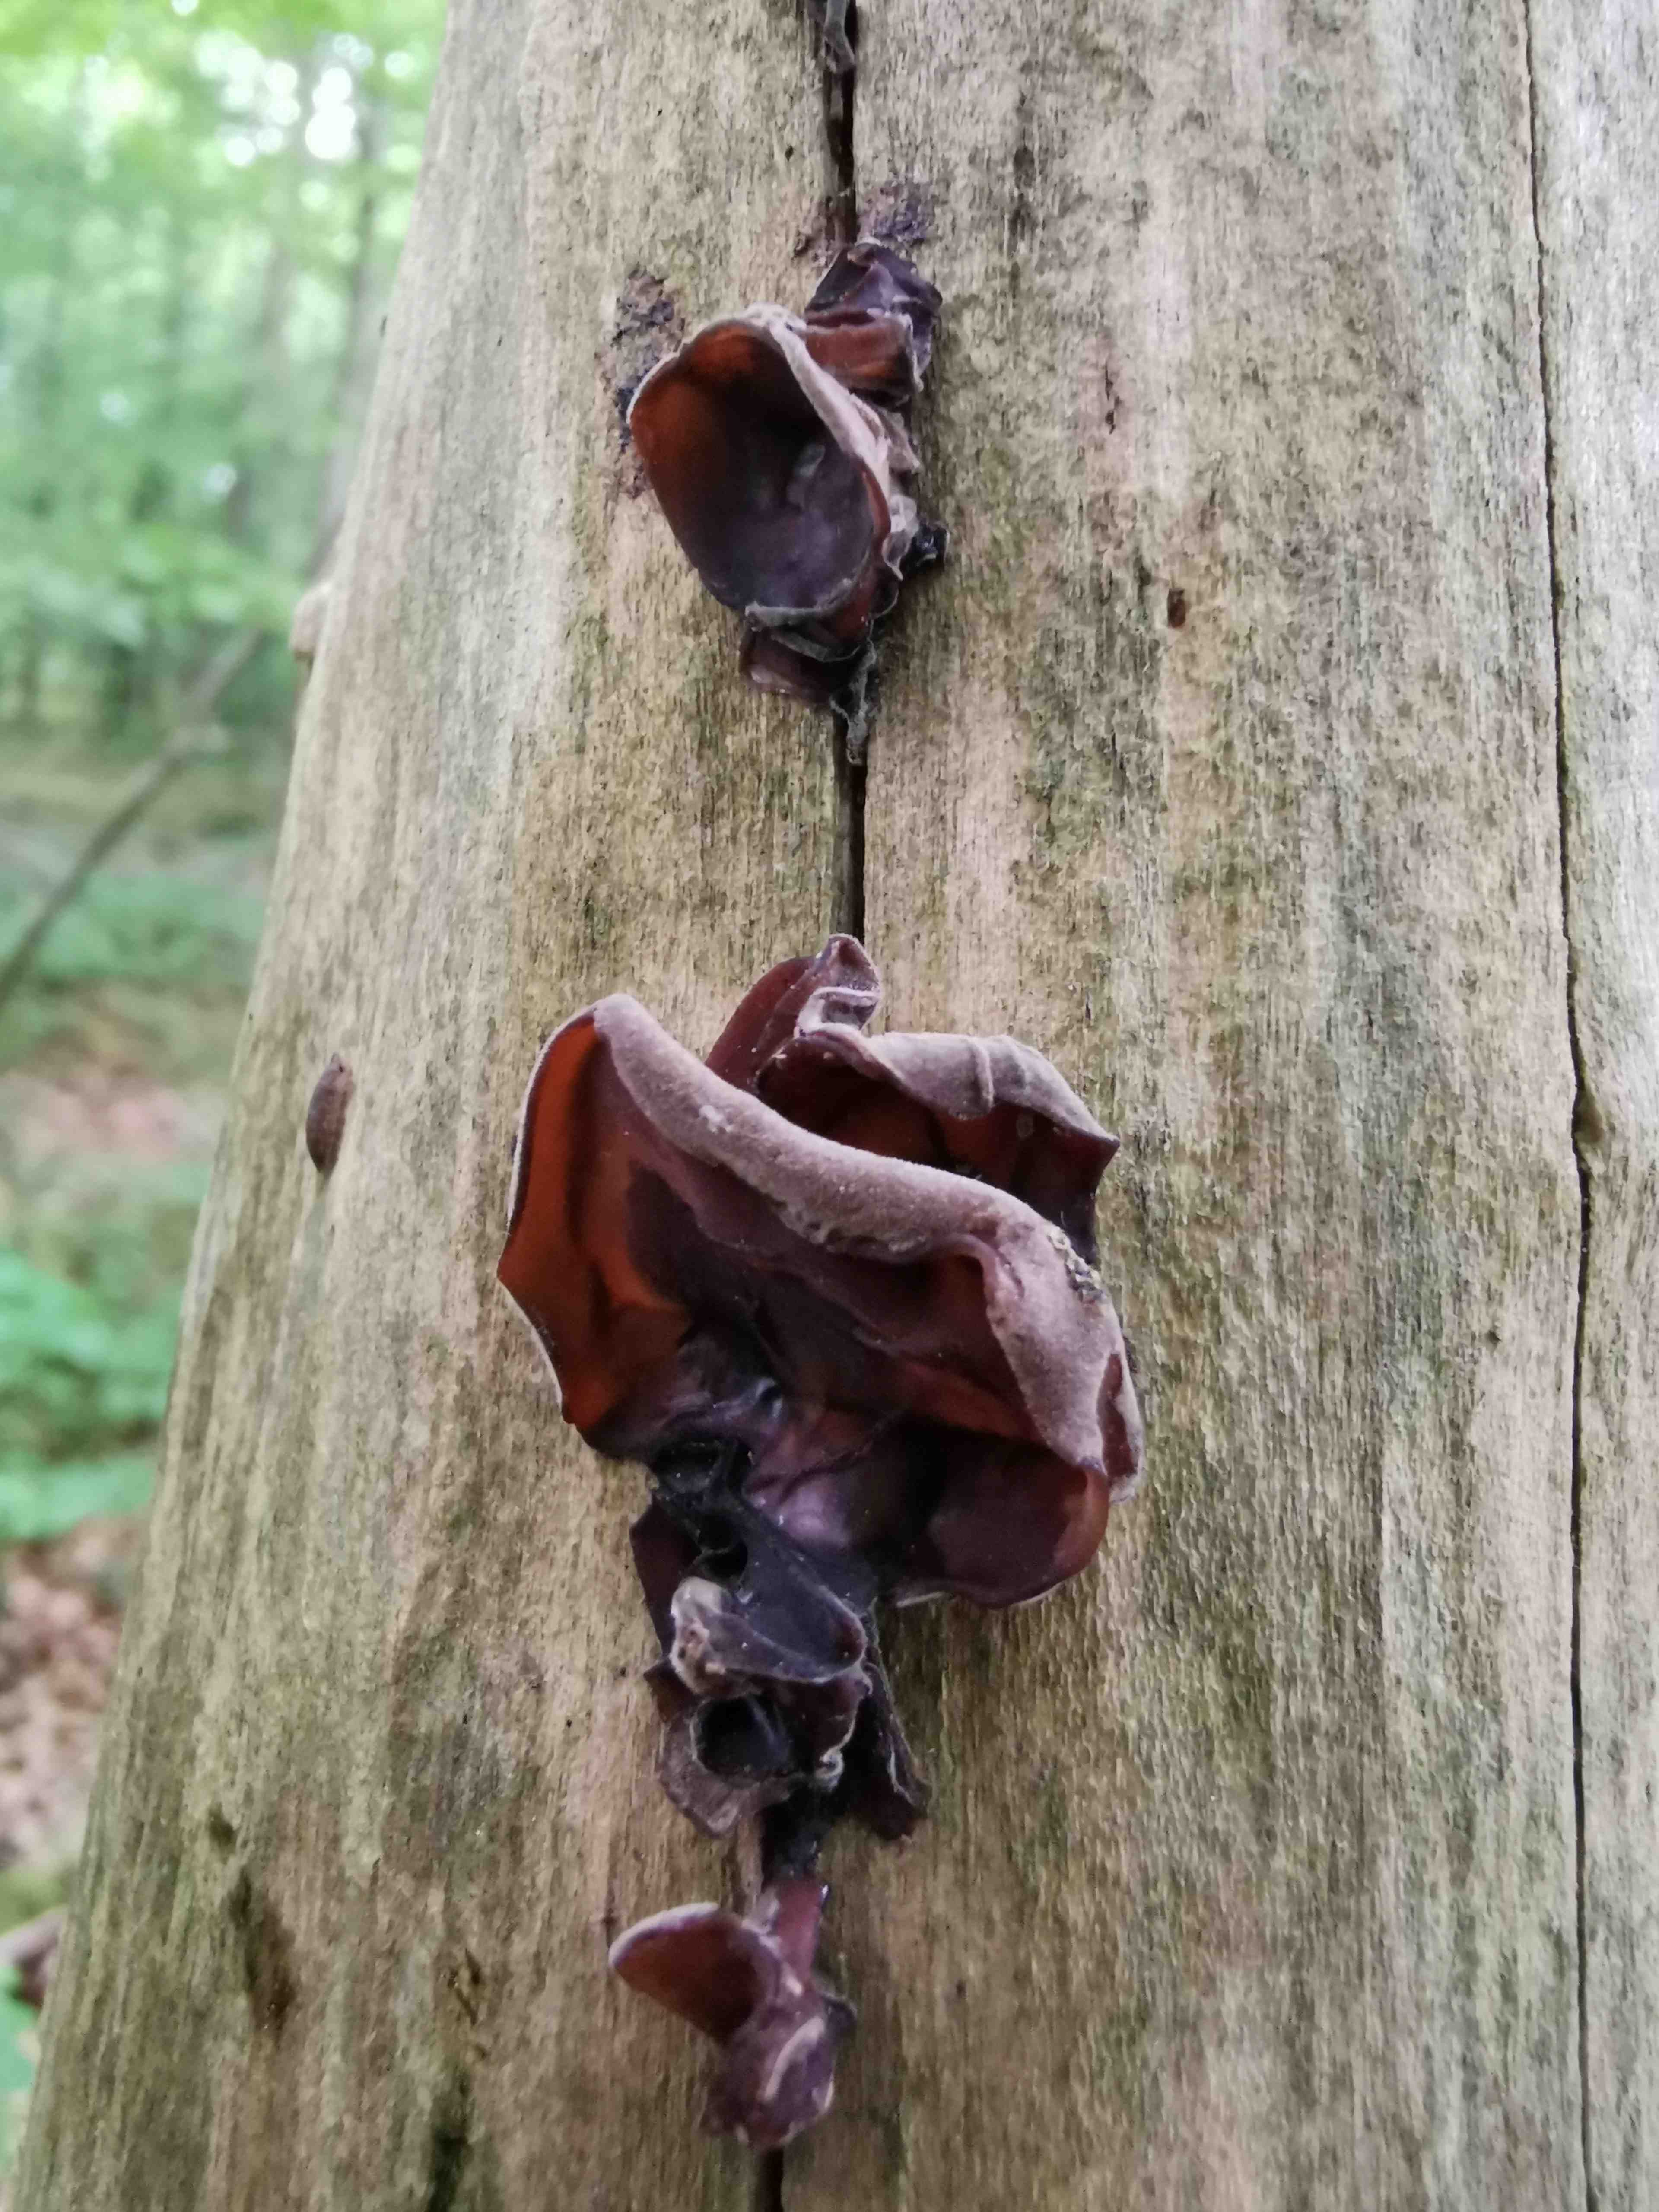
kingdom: Fungi
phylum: Basidiomycota
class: Agaricomycetes
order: Auriculariales
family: Auriculariaceae
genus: Auricularia
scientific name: Auricularia auricula-judae
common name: almindelig judasøre
